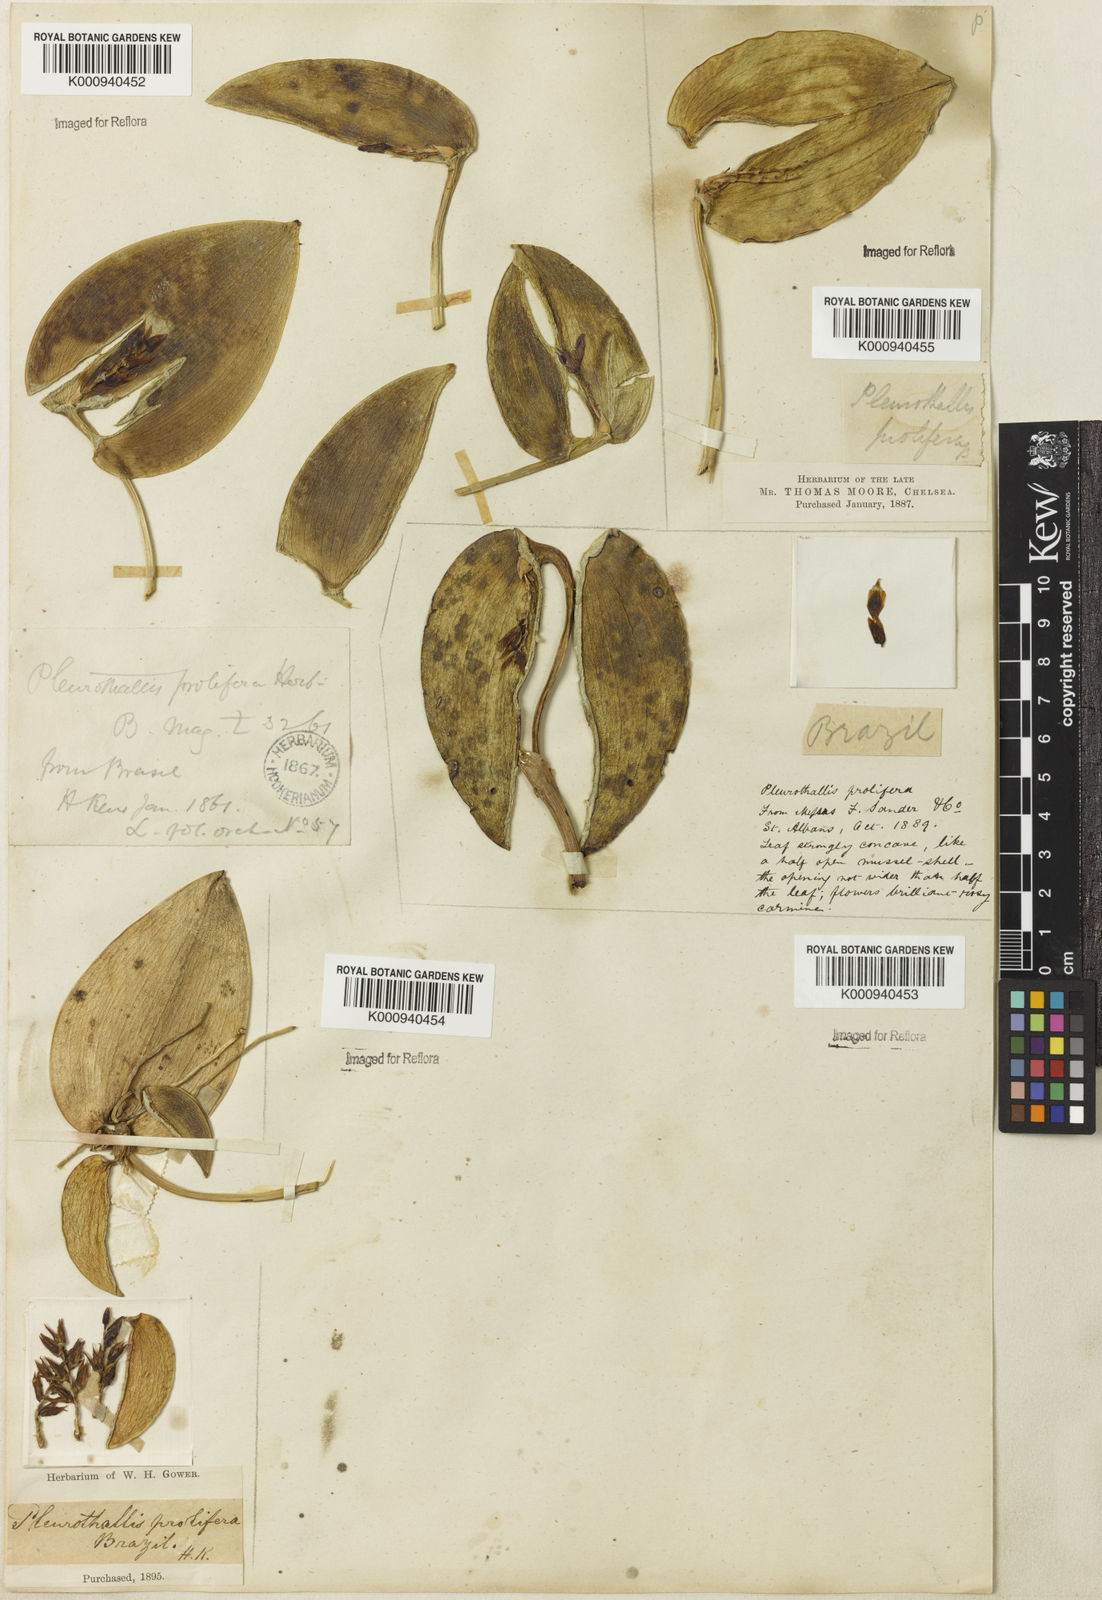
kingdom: Plantae
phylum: Tracheophyta
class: Liliopsida
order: Asparagales
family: Orchidaceae
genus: Acianthera
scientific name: Acianthera prolifera
